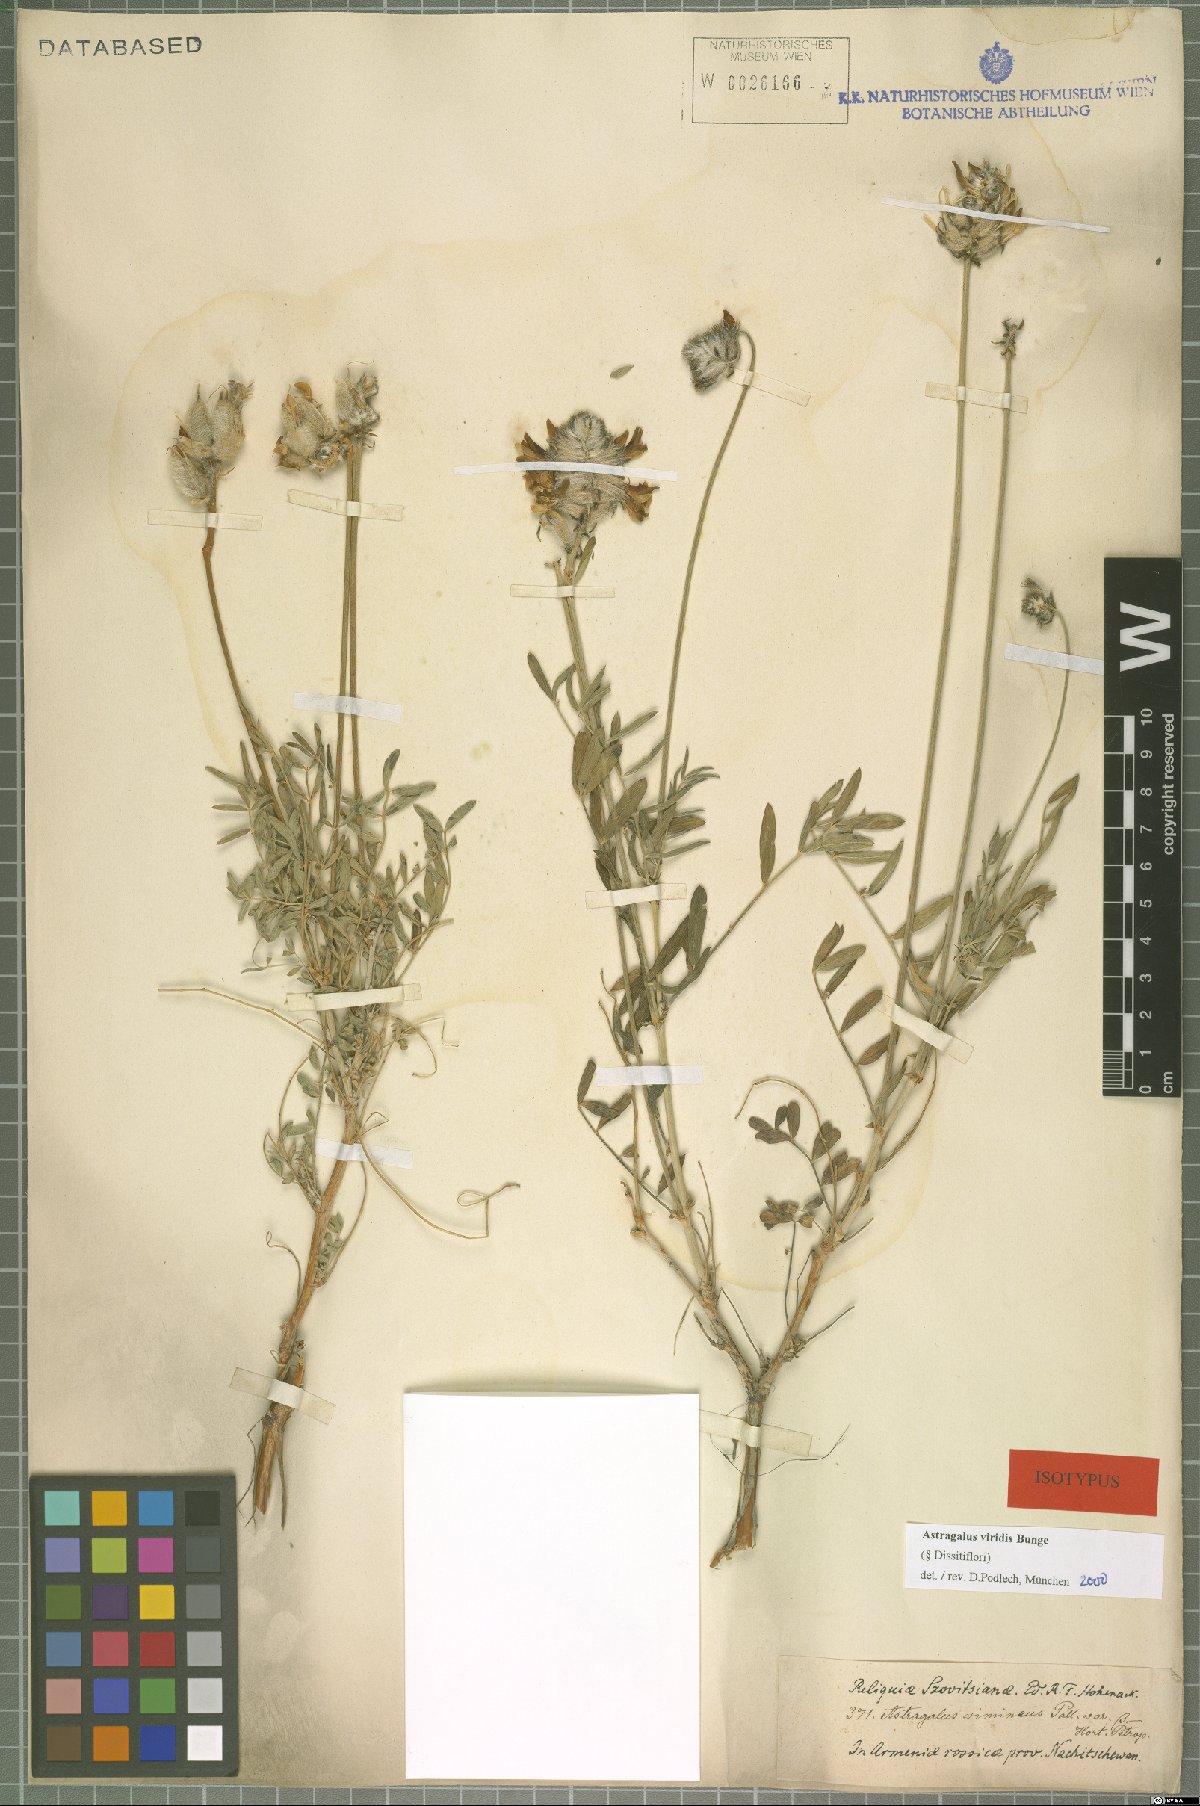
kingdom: Plantae
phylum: Tracheophyta
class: Magnoliopsida
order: Fabales
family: Fabaceae
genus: Astragalus
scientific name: Astragalus viridis
